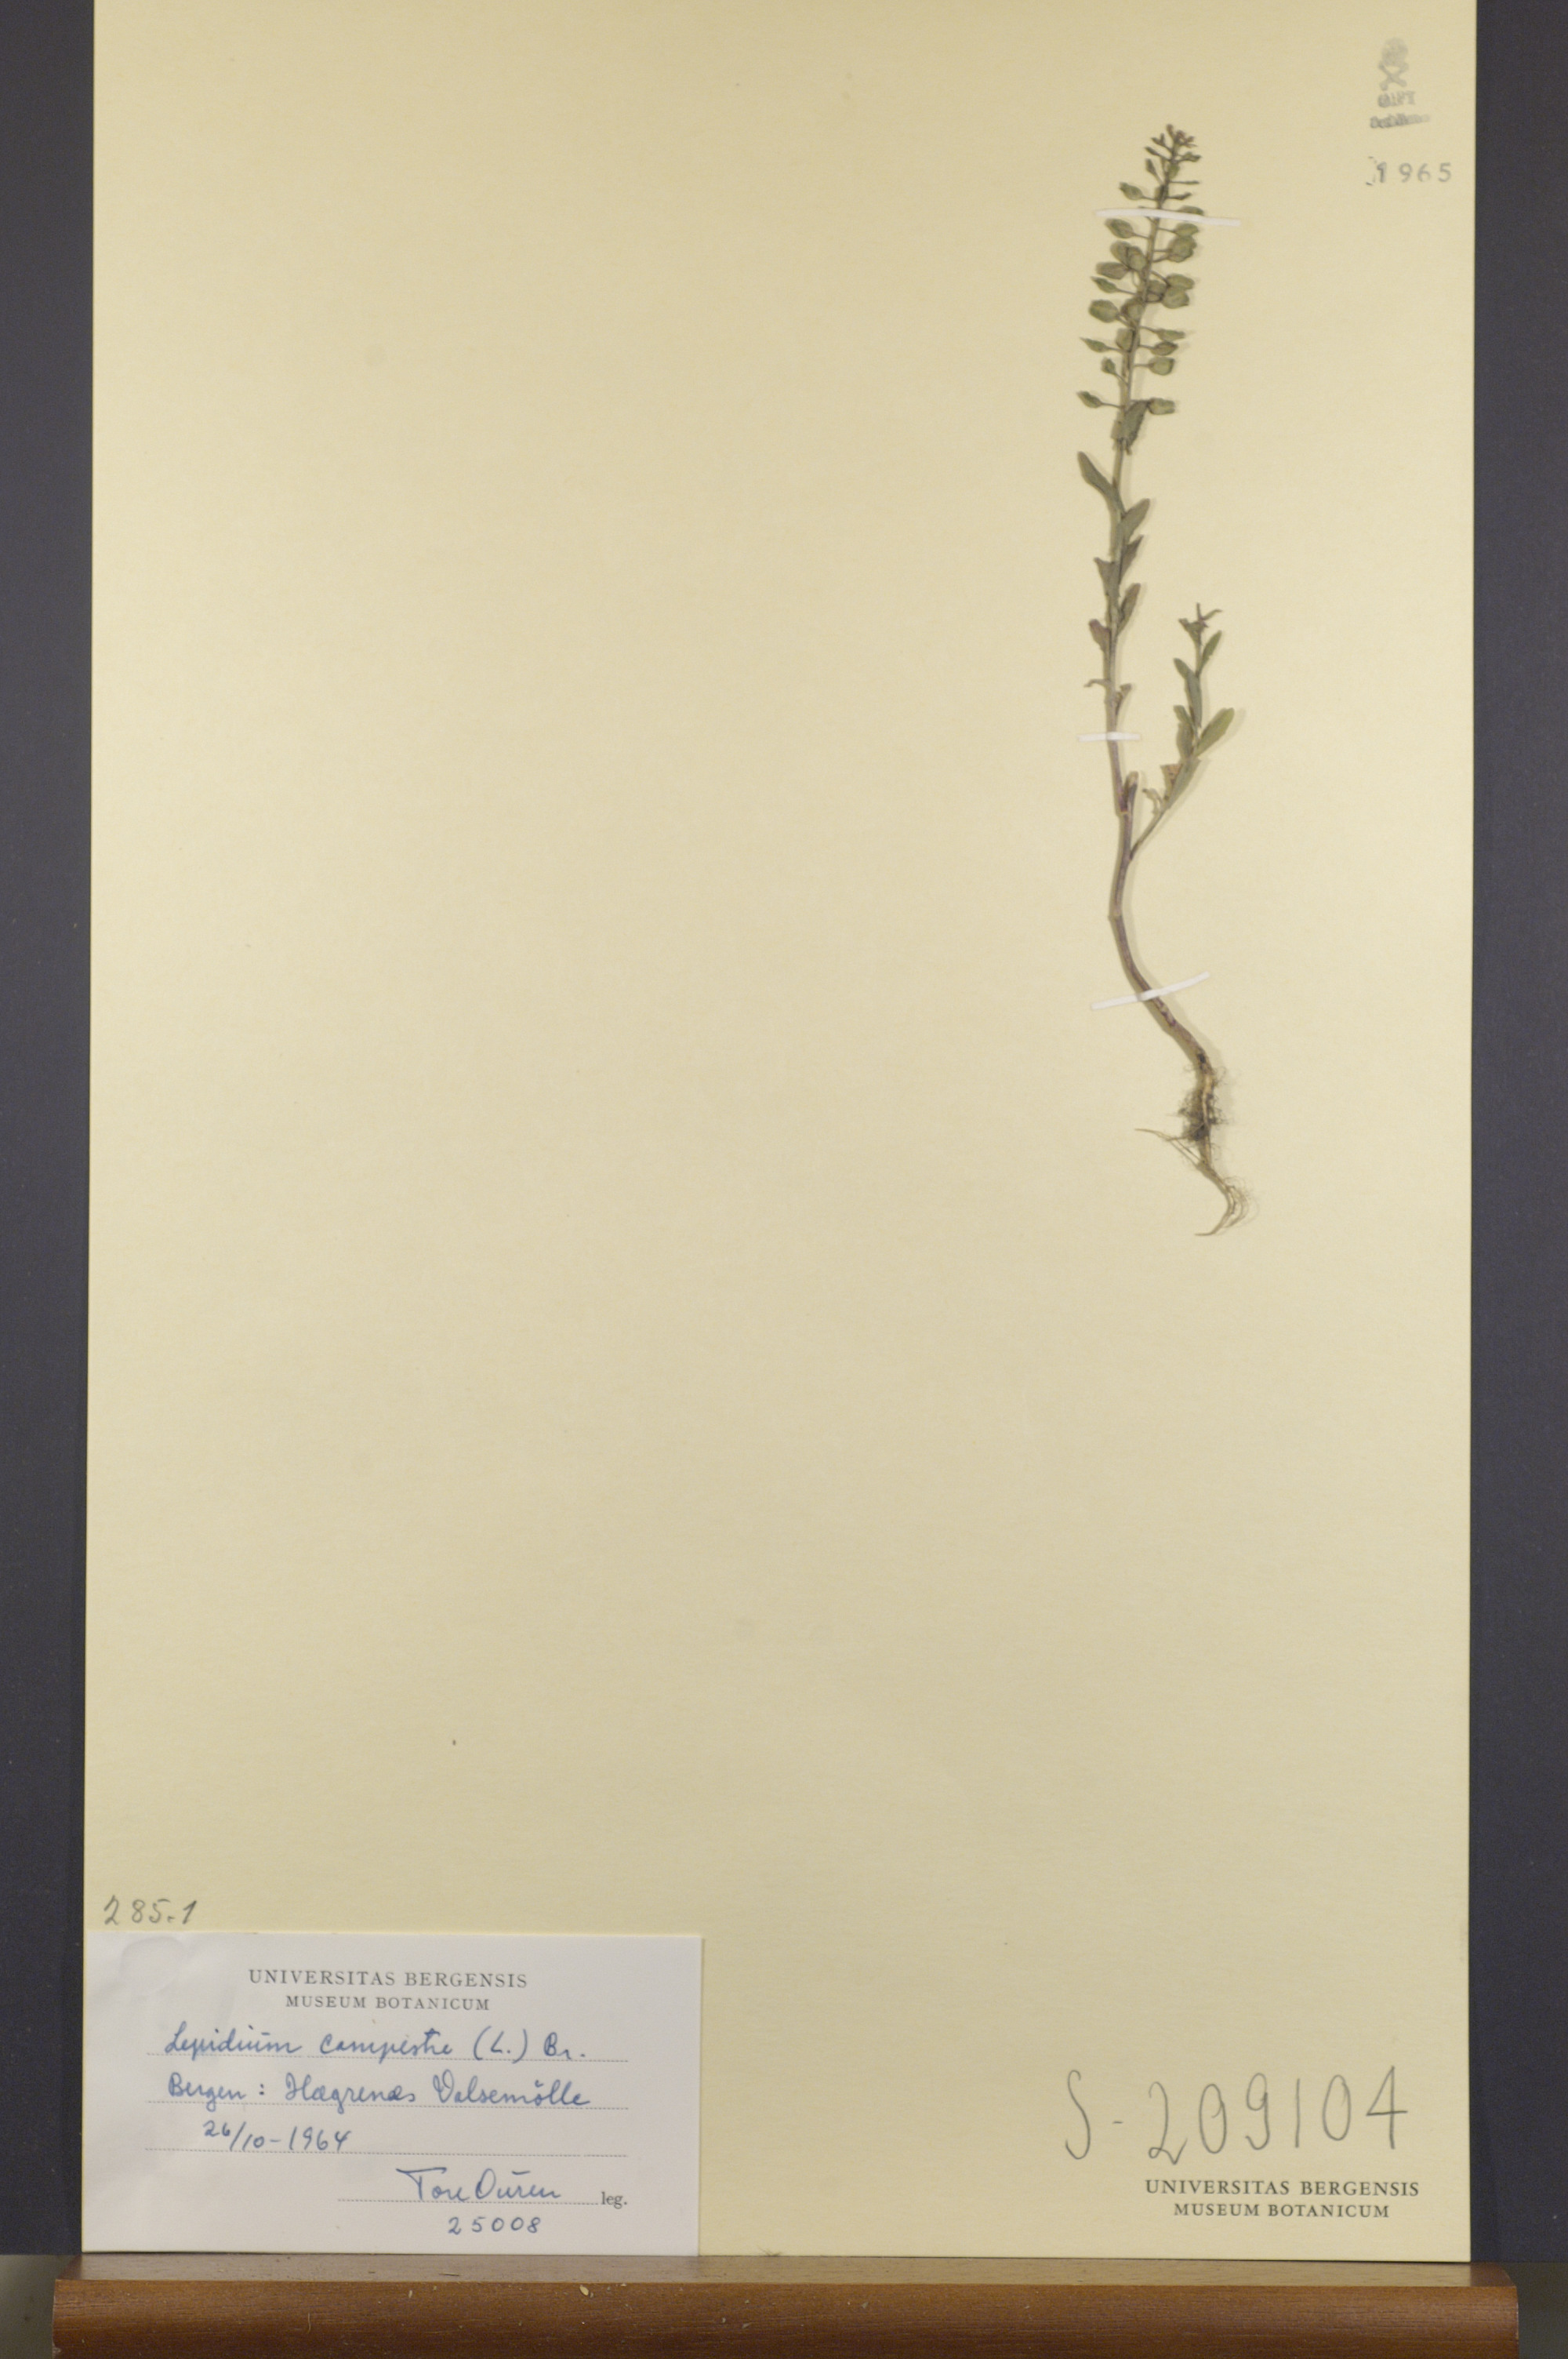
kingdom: Plantae
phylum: Tracheophyta
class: Magnoliopsida
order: Brassicales
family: Brassicaceae
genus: Lepidium
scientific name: Lepidium campestre
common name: Field pepperwort
